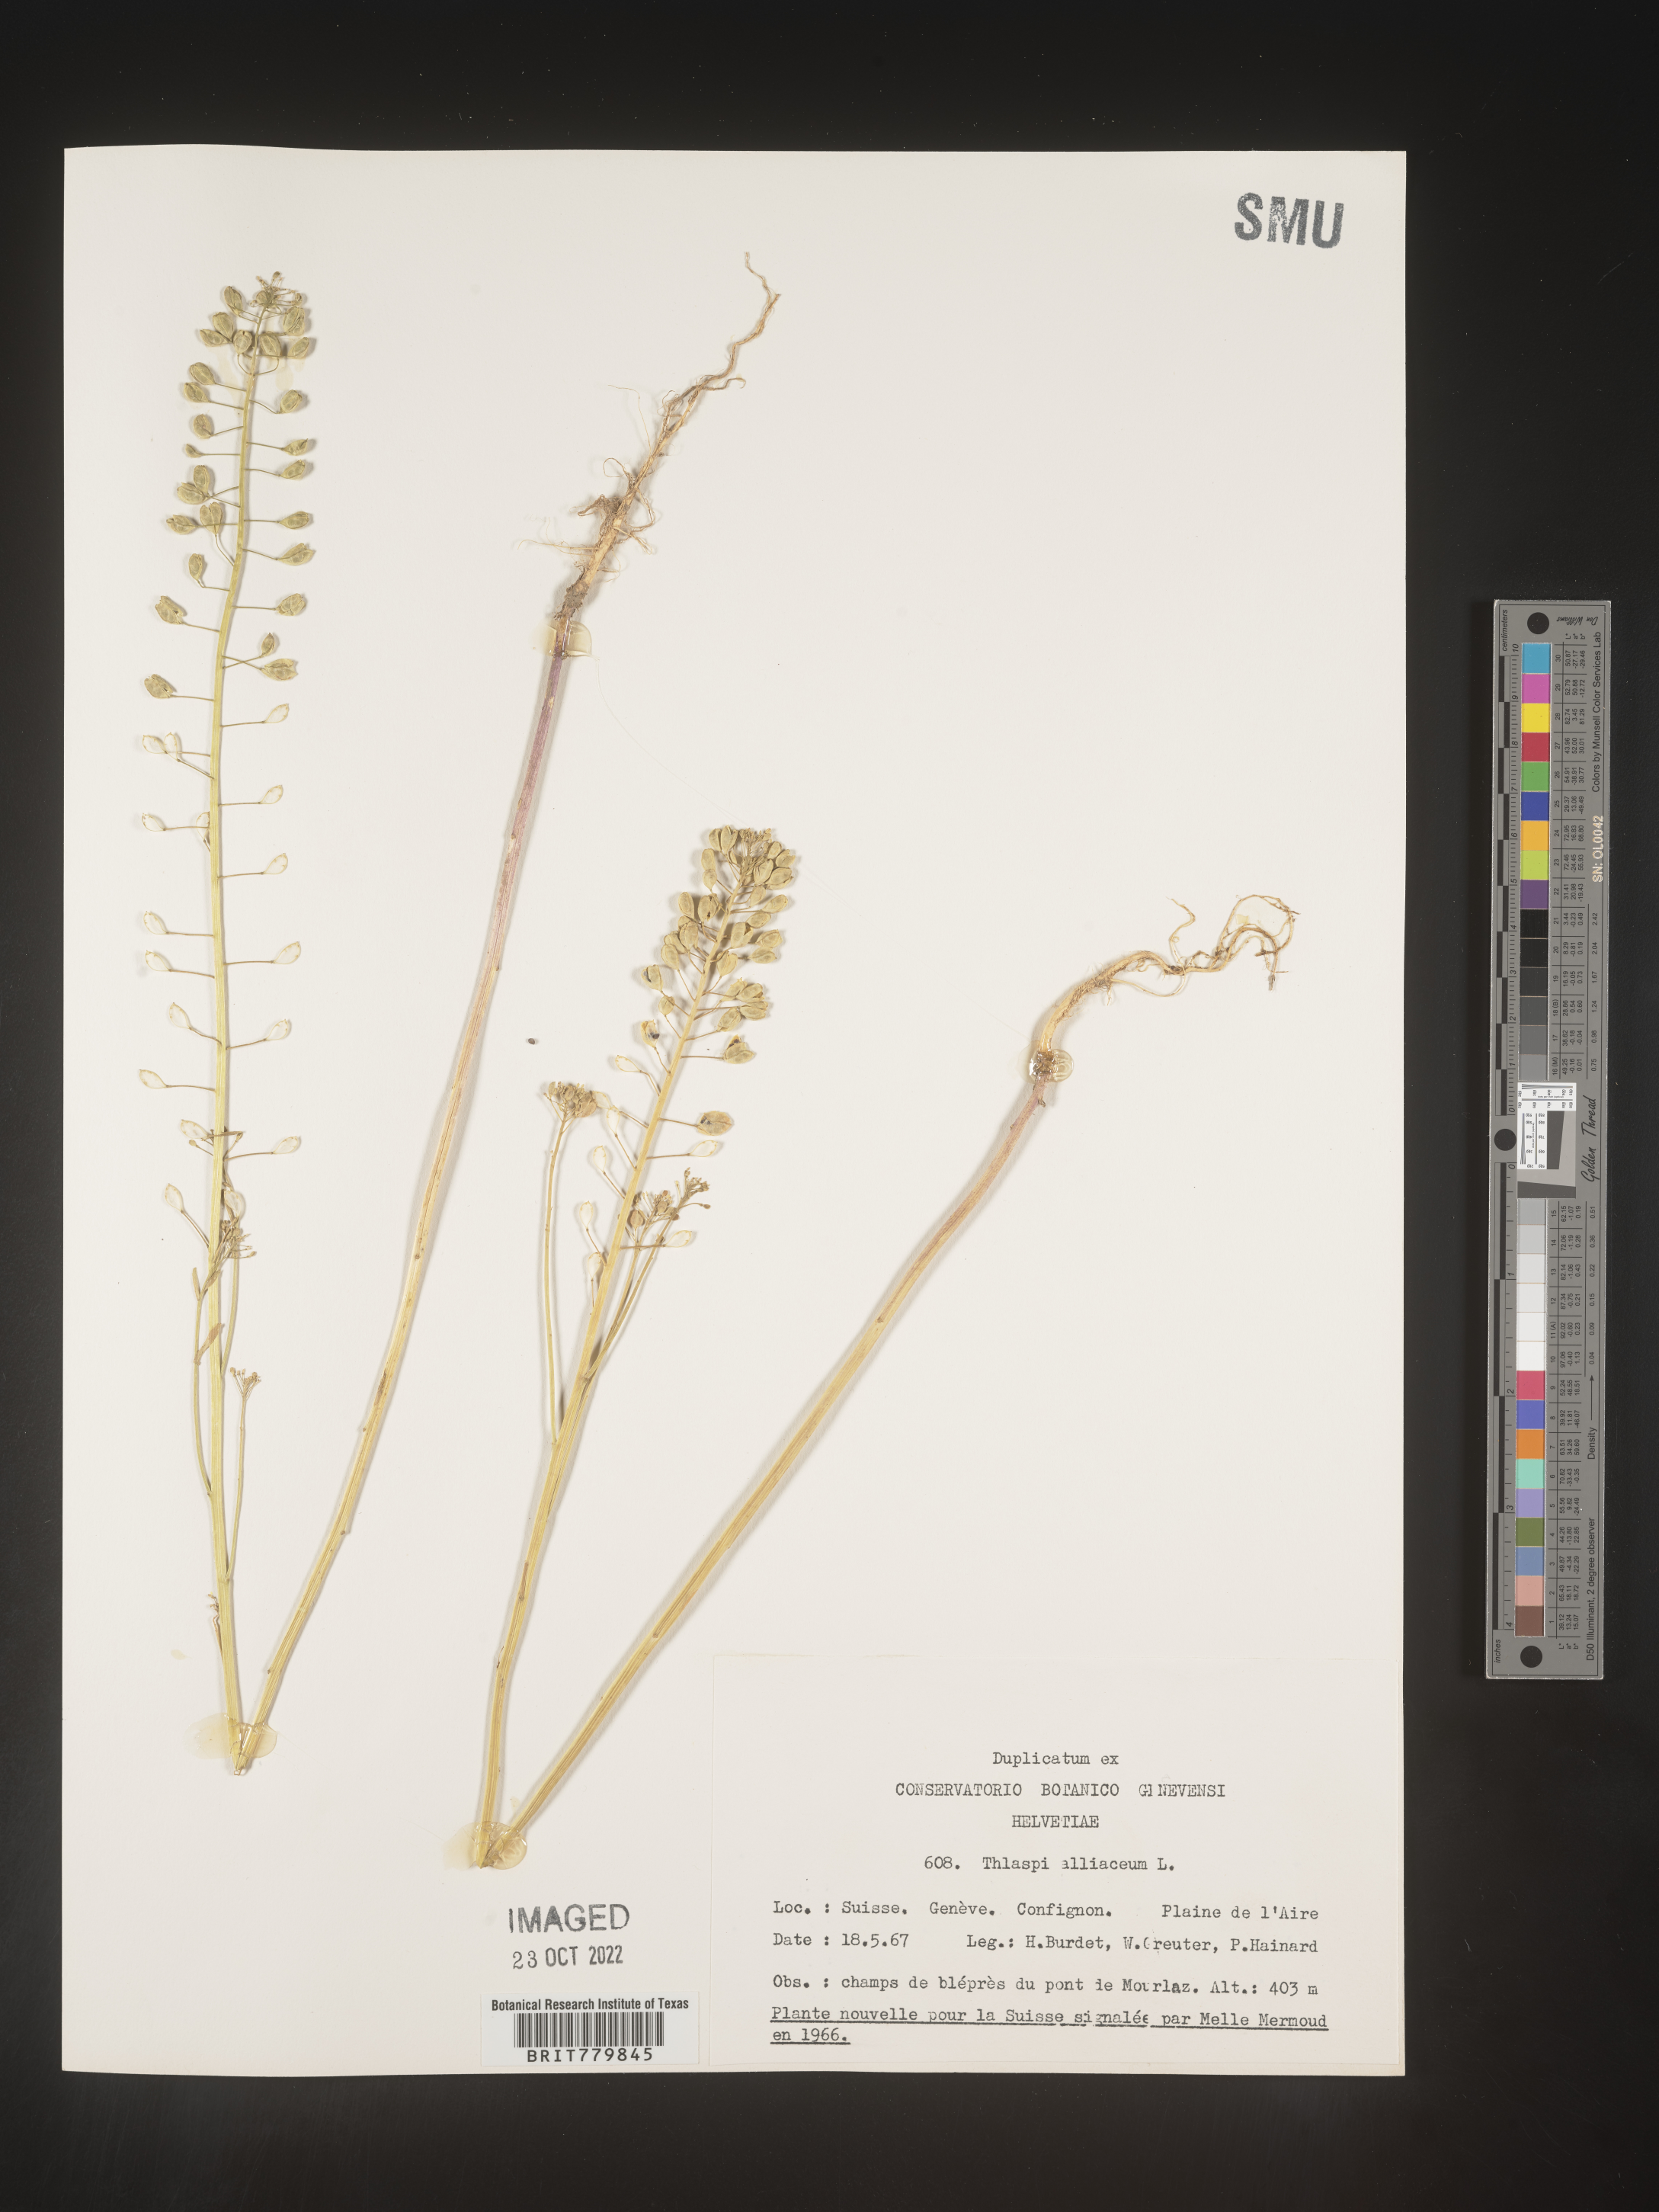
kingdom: Plantae
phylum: Tracheophyta
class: Magnoliopsida
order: Brassicales
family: Brassicaceae
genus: Thlaspi
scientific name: Thlaspi
